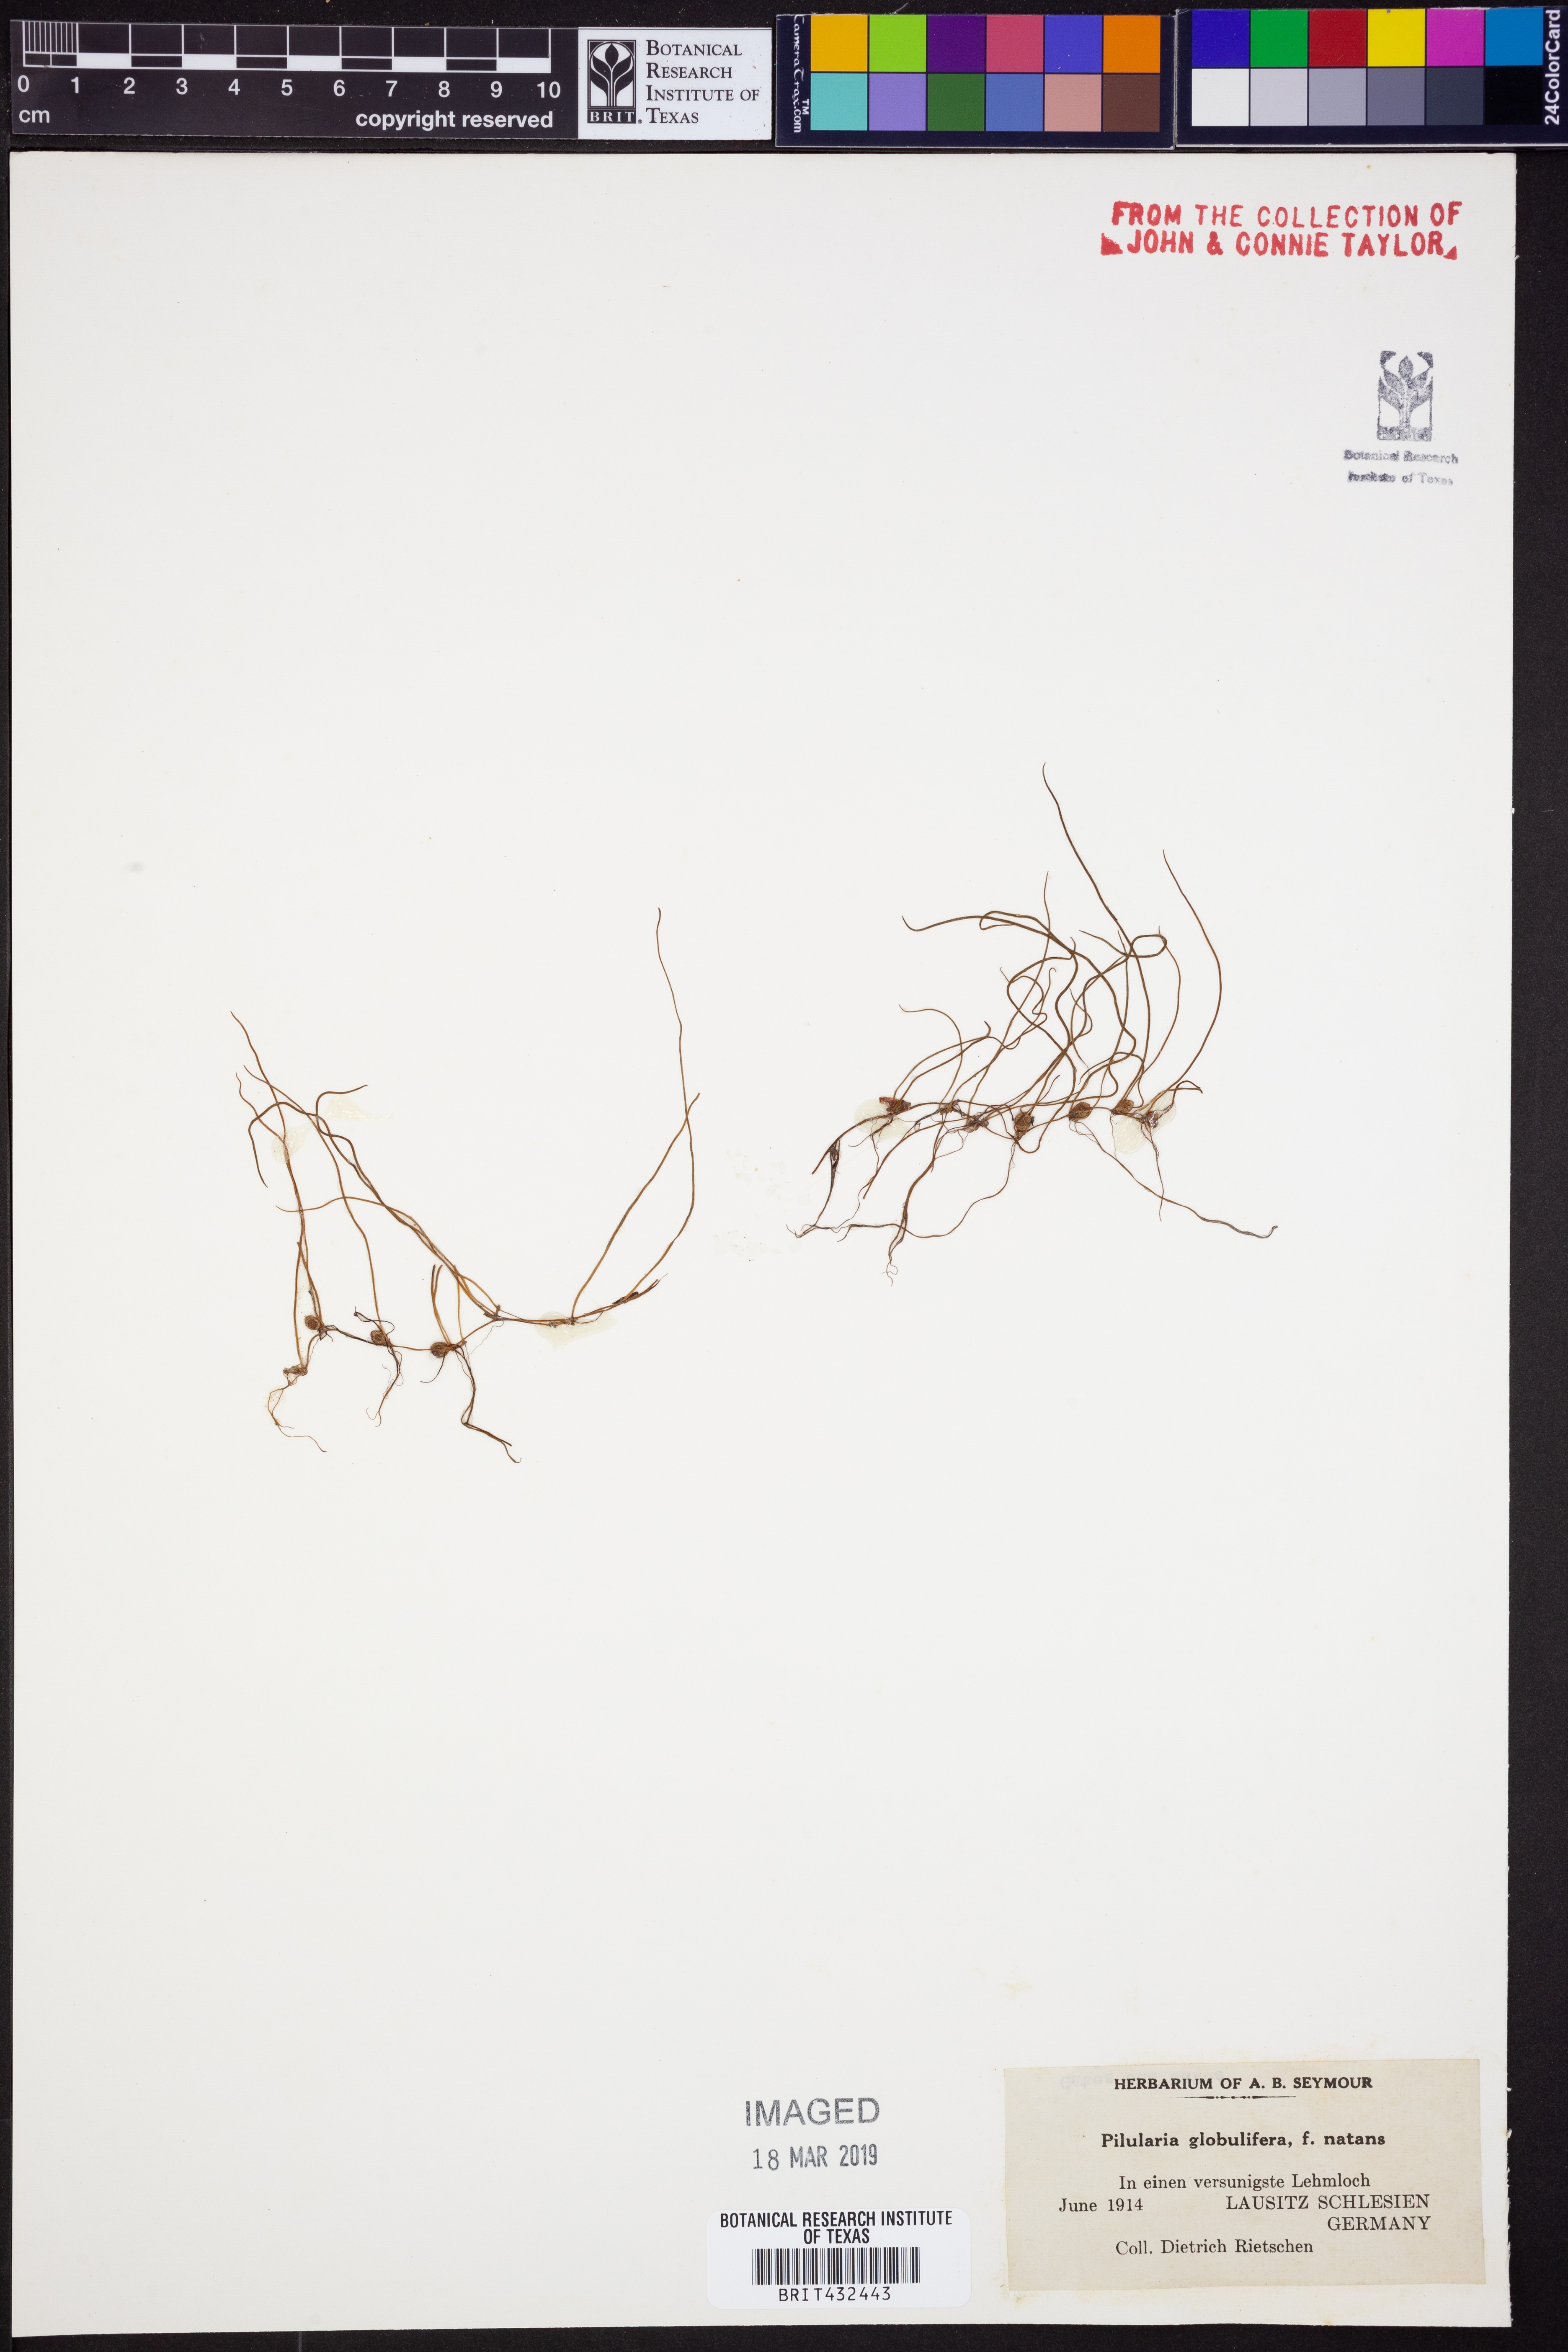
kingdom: Plantae
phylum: Tracheophyta
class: Polypodiopsida
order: Salviniales
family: Marsileaceae
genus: Pilularia
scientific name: Pilularia globulifera
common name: Pillwort
